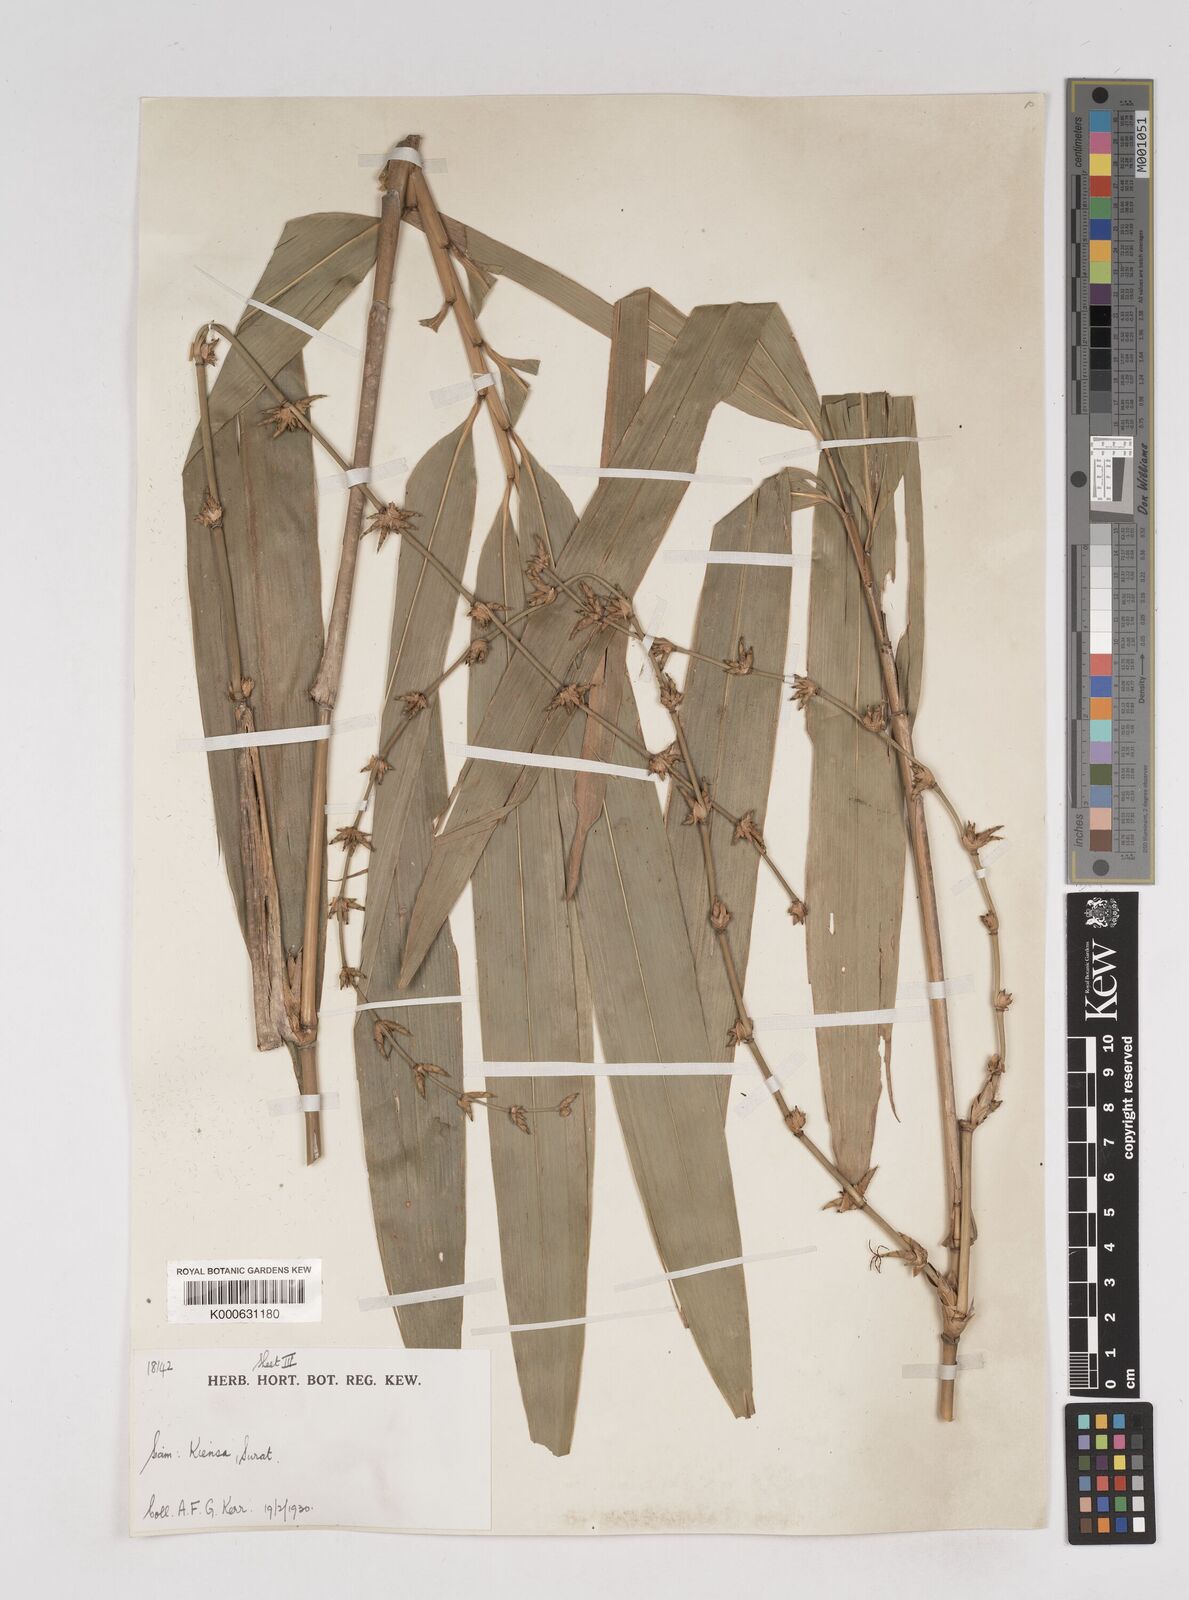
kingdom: Plantae
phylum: Tracheophyta
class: Liliopsida
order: Poales
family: Poaceae
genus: Gigantochloa
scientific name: Gigantochloa
